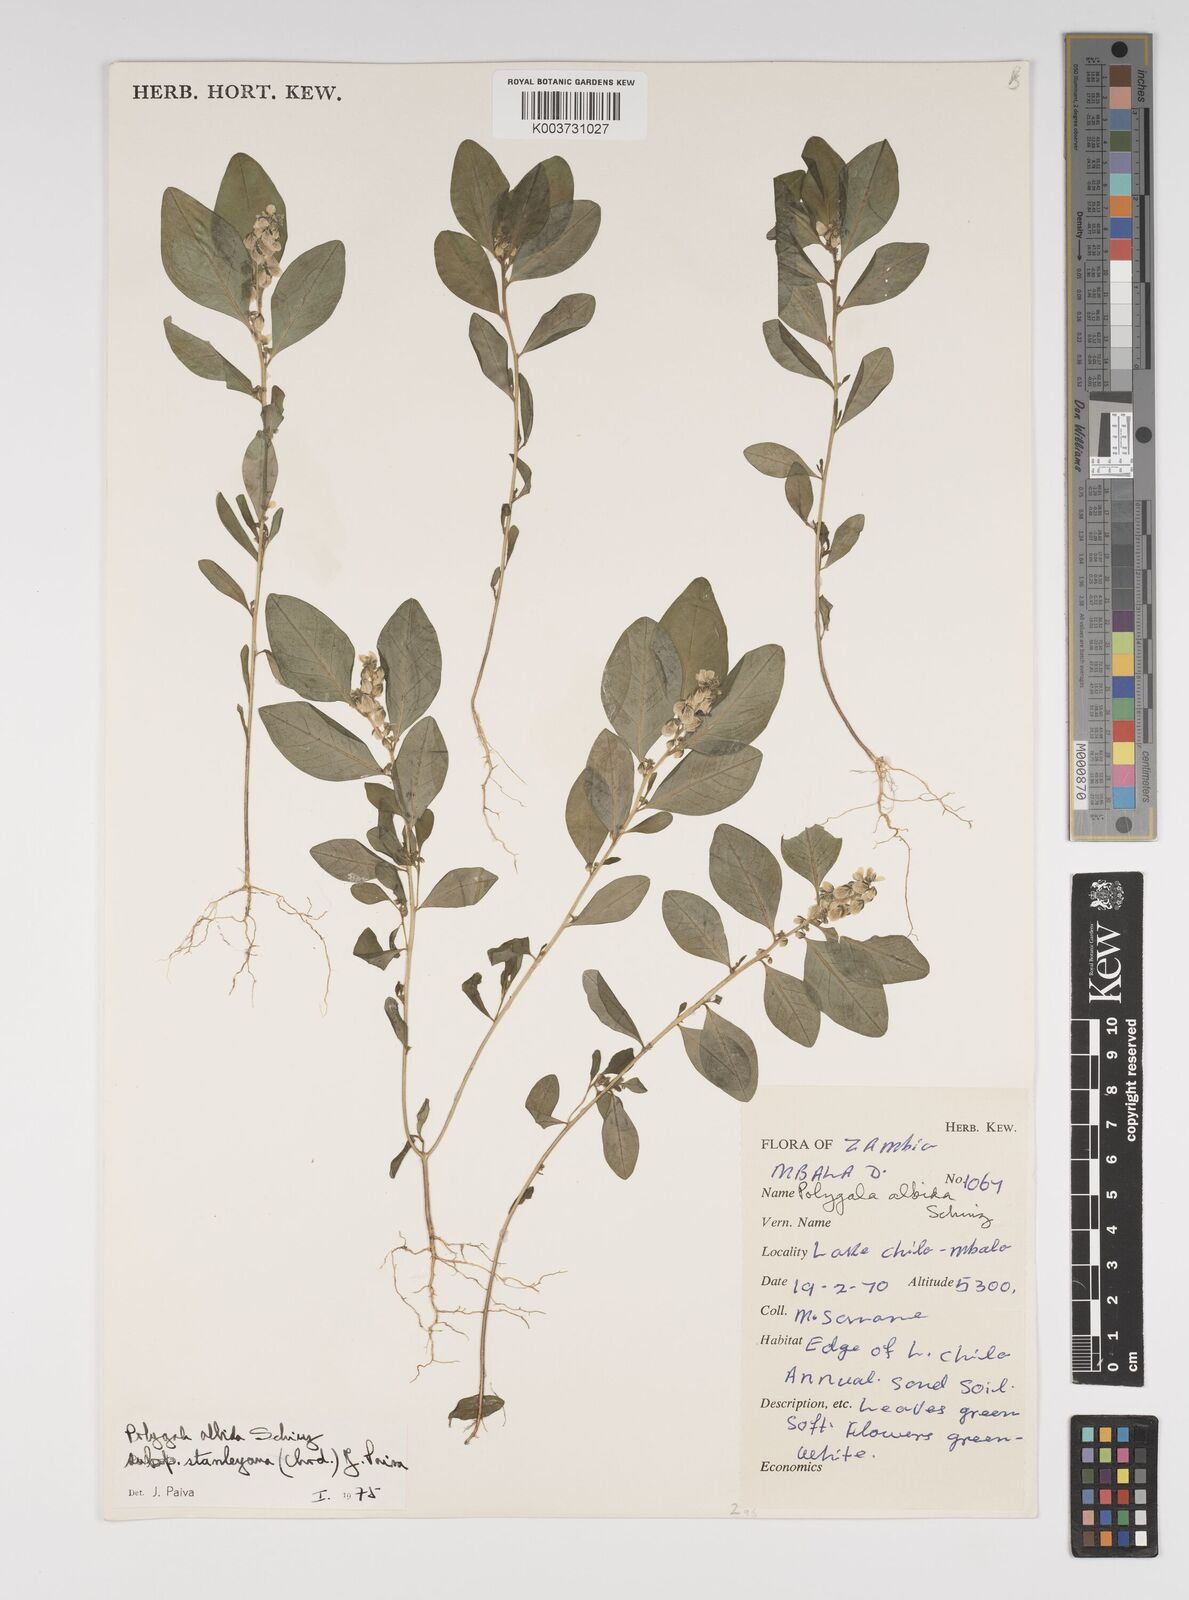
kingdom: Plantae
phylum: Tracheophyta
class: Magnoliopsida
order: Fabales
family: Polygalaceae
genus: Polygala
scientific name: Polygala albida
